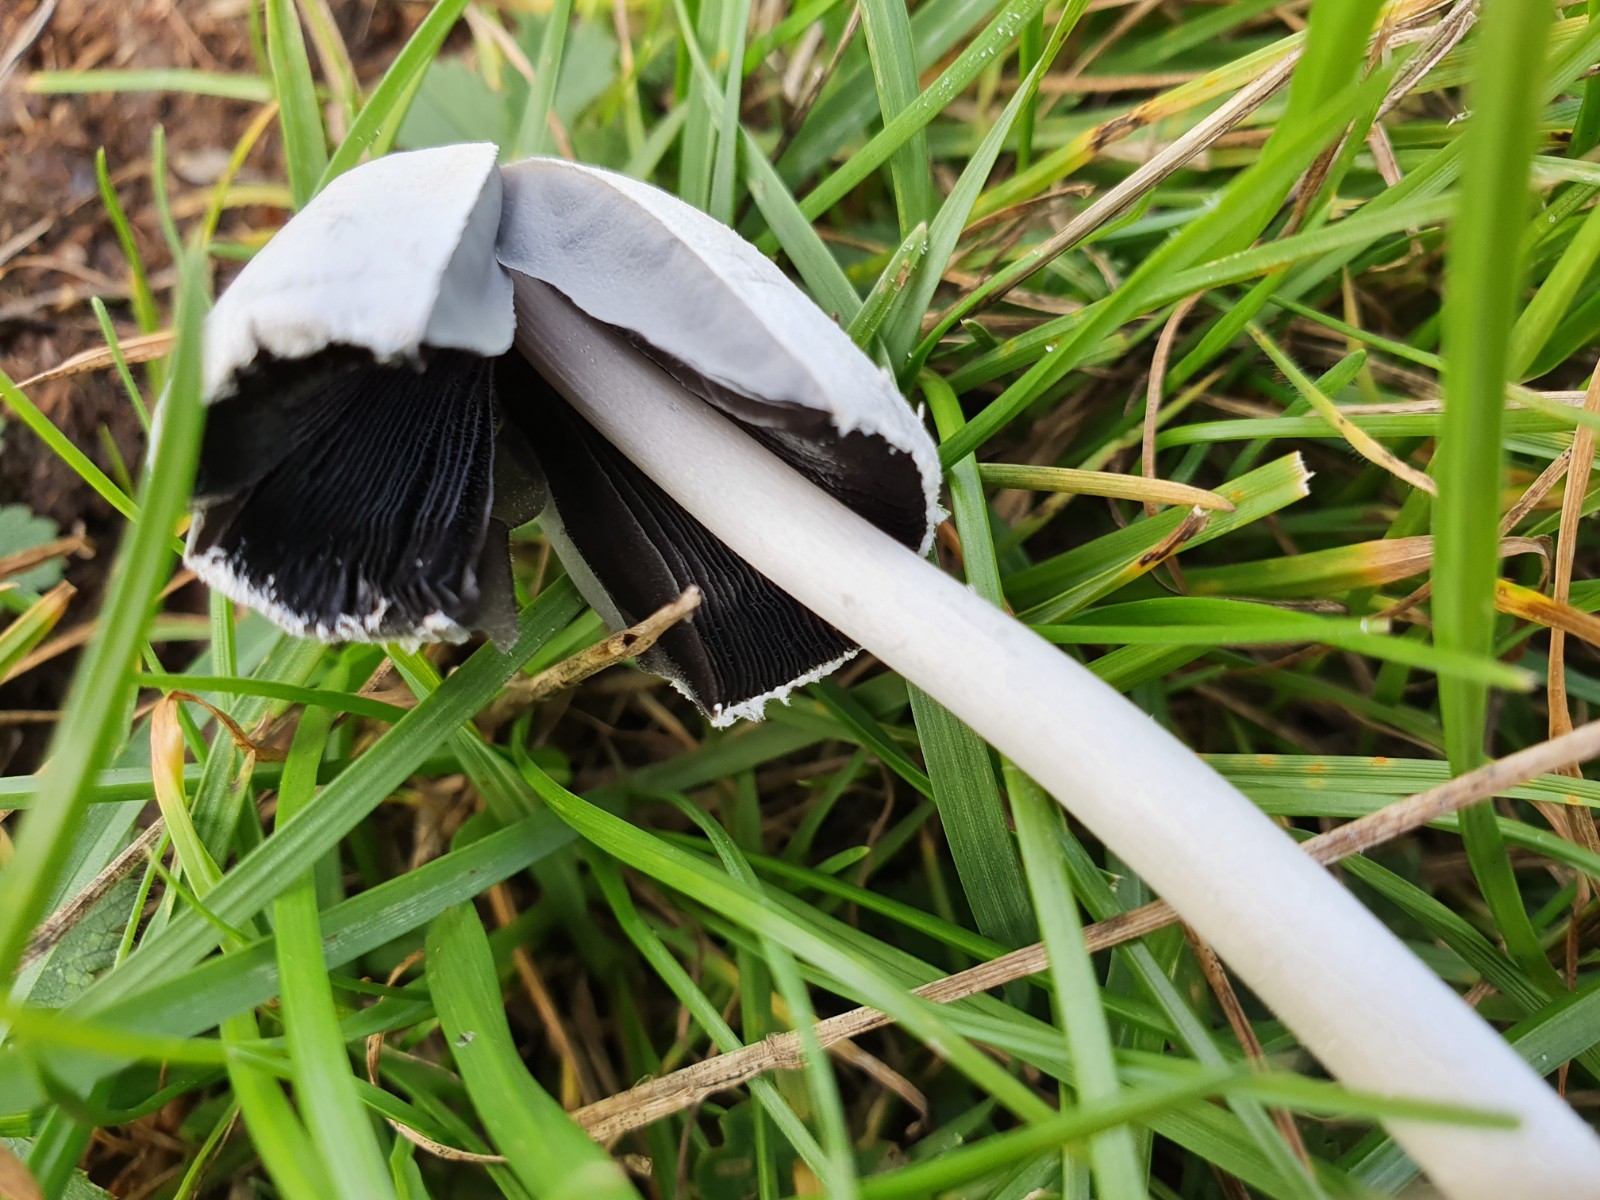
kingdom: Fungi
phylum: Basidiomycota
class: Agaricomycetes
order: Agaricales
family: Psathyrellaceae
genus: Coprinopsis
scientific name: Coprinopsis
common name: blækhat
